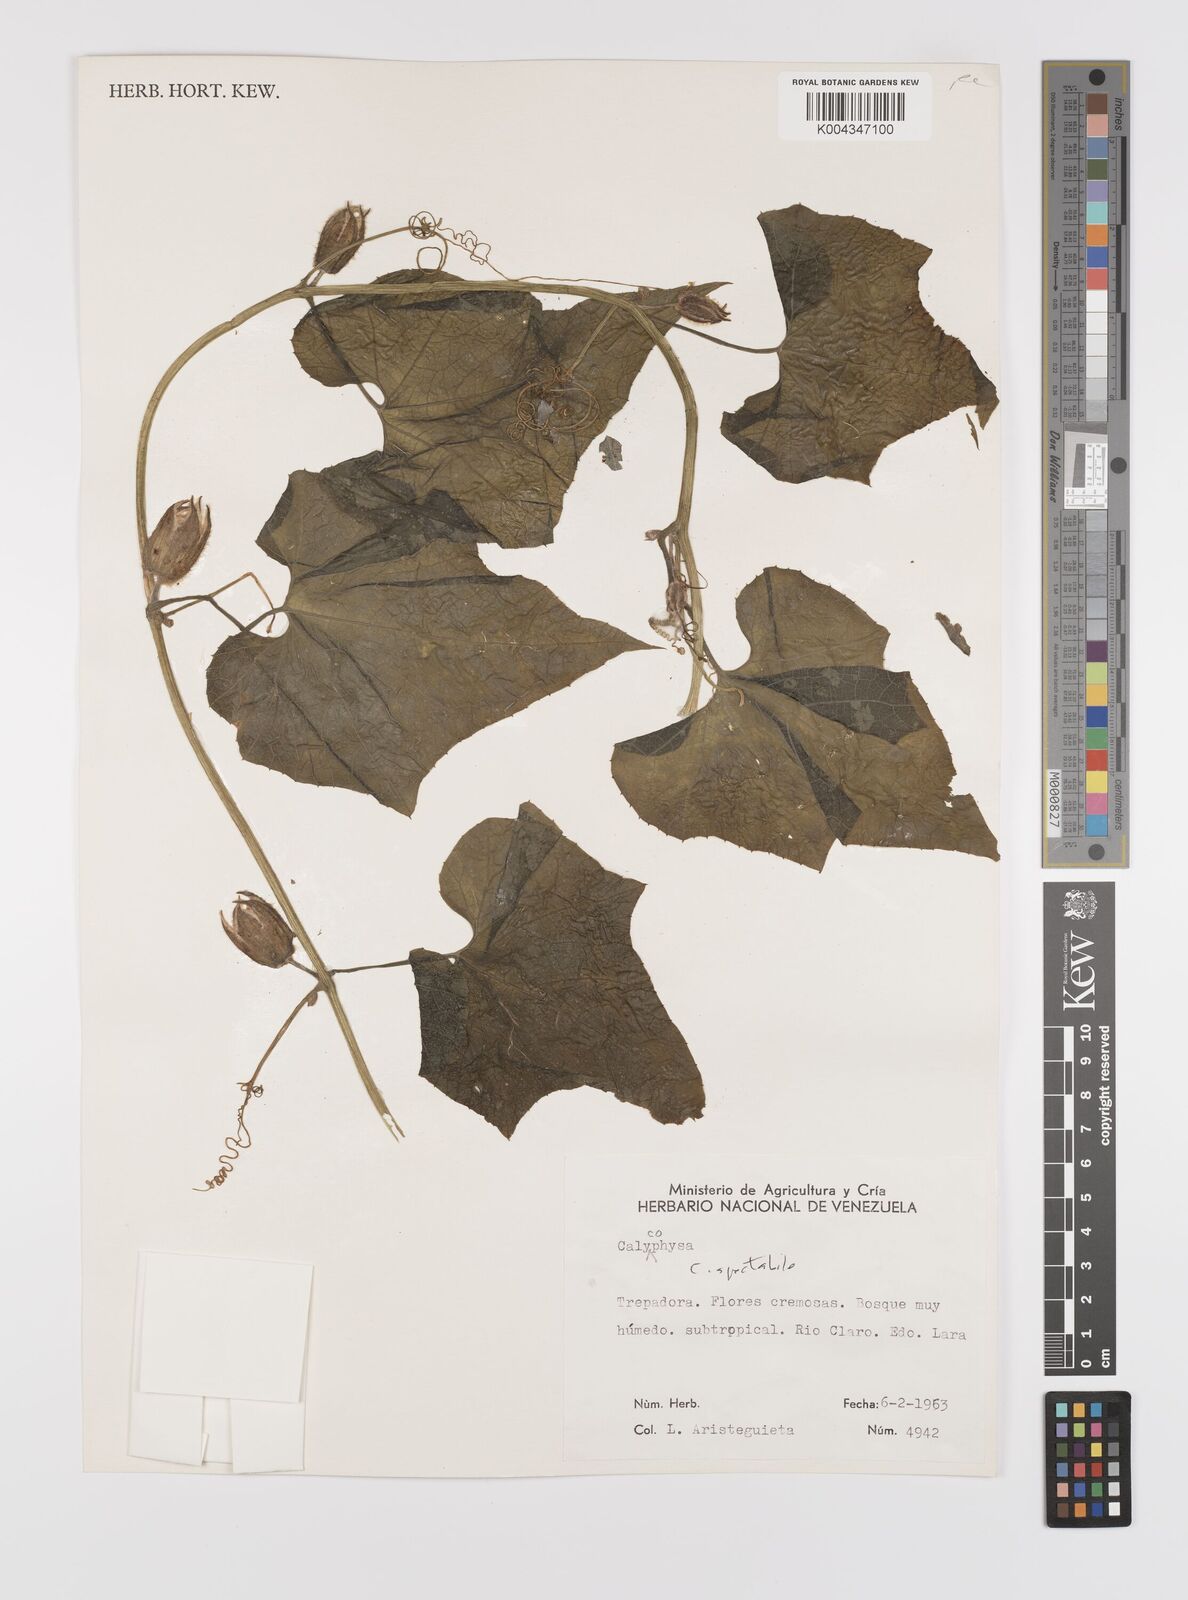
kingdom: Plantae
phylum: Tracheophyta
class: Magnoliopsida
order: Cucurbitales
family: Cucurbitaceae
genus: Calycophysum
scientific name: Calycophysum spectabile
